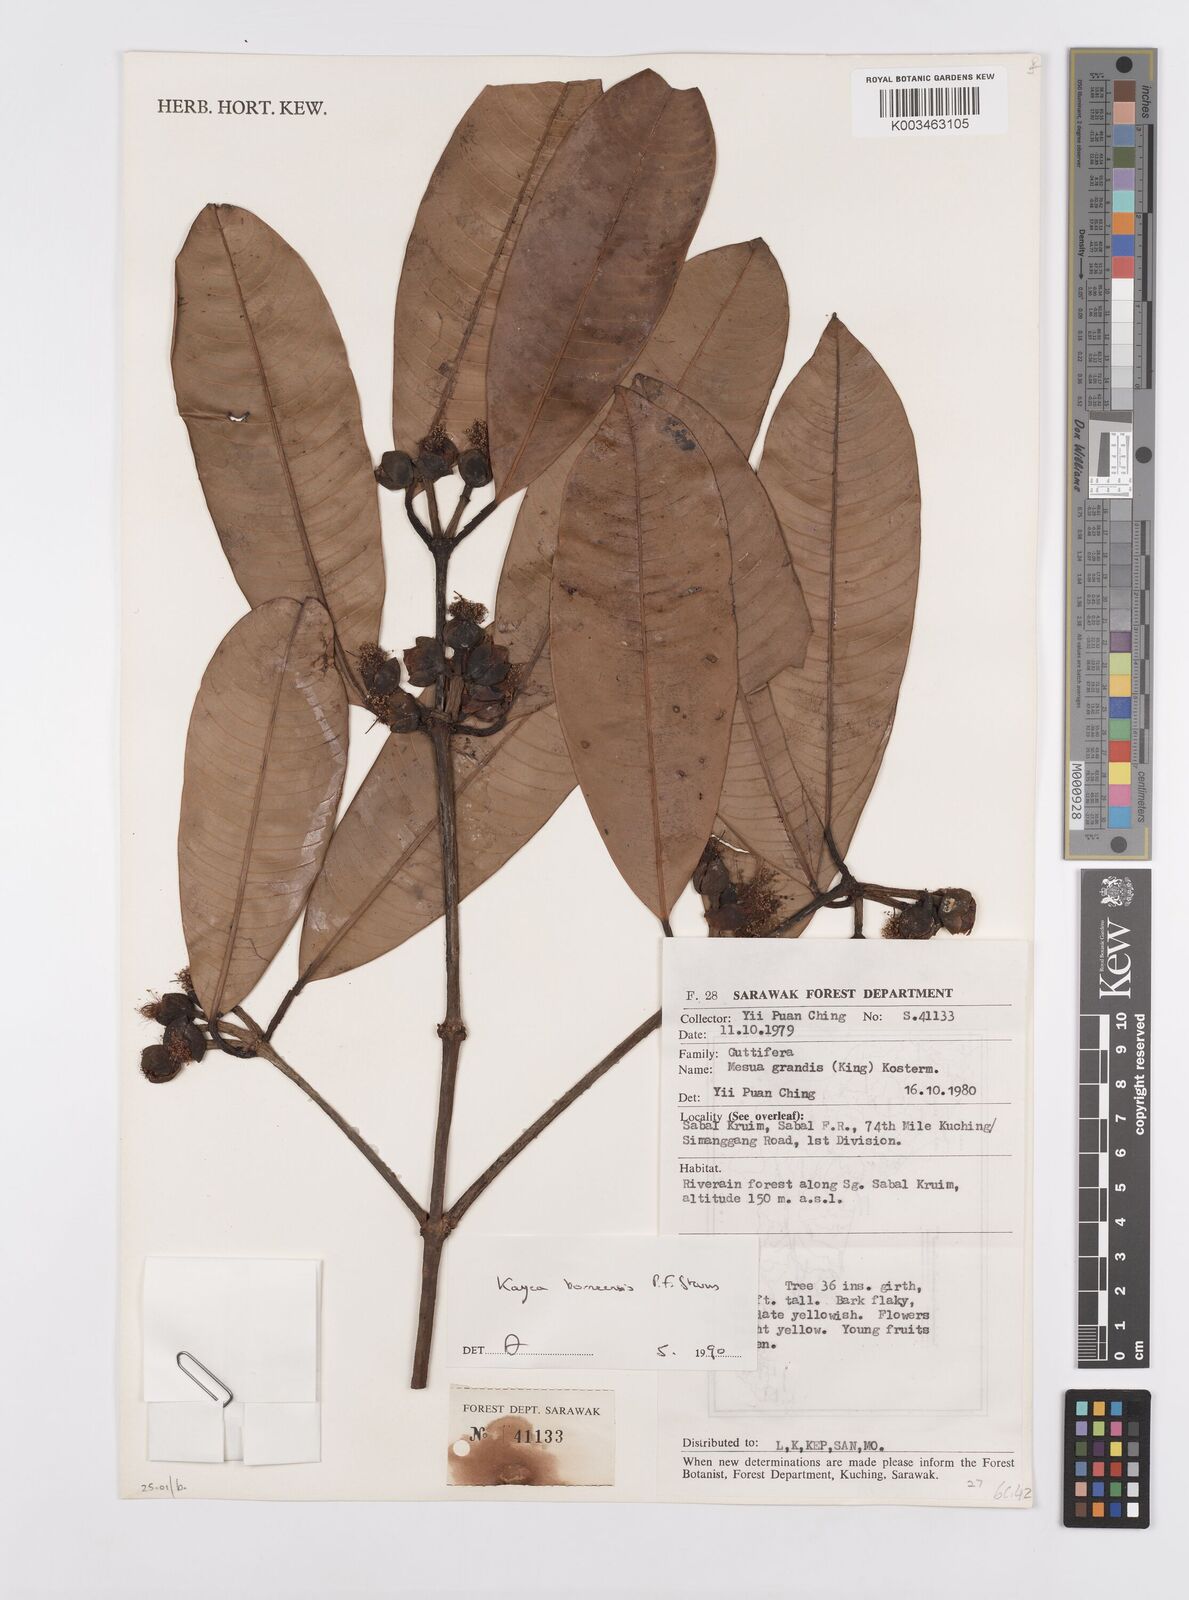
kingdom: Plantae
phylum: Tracheophyta
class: Magnoliopsida
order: Malpighiales
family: Calophyllaceae
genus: Kayea
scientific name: Kayea borneensis
